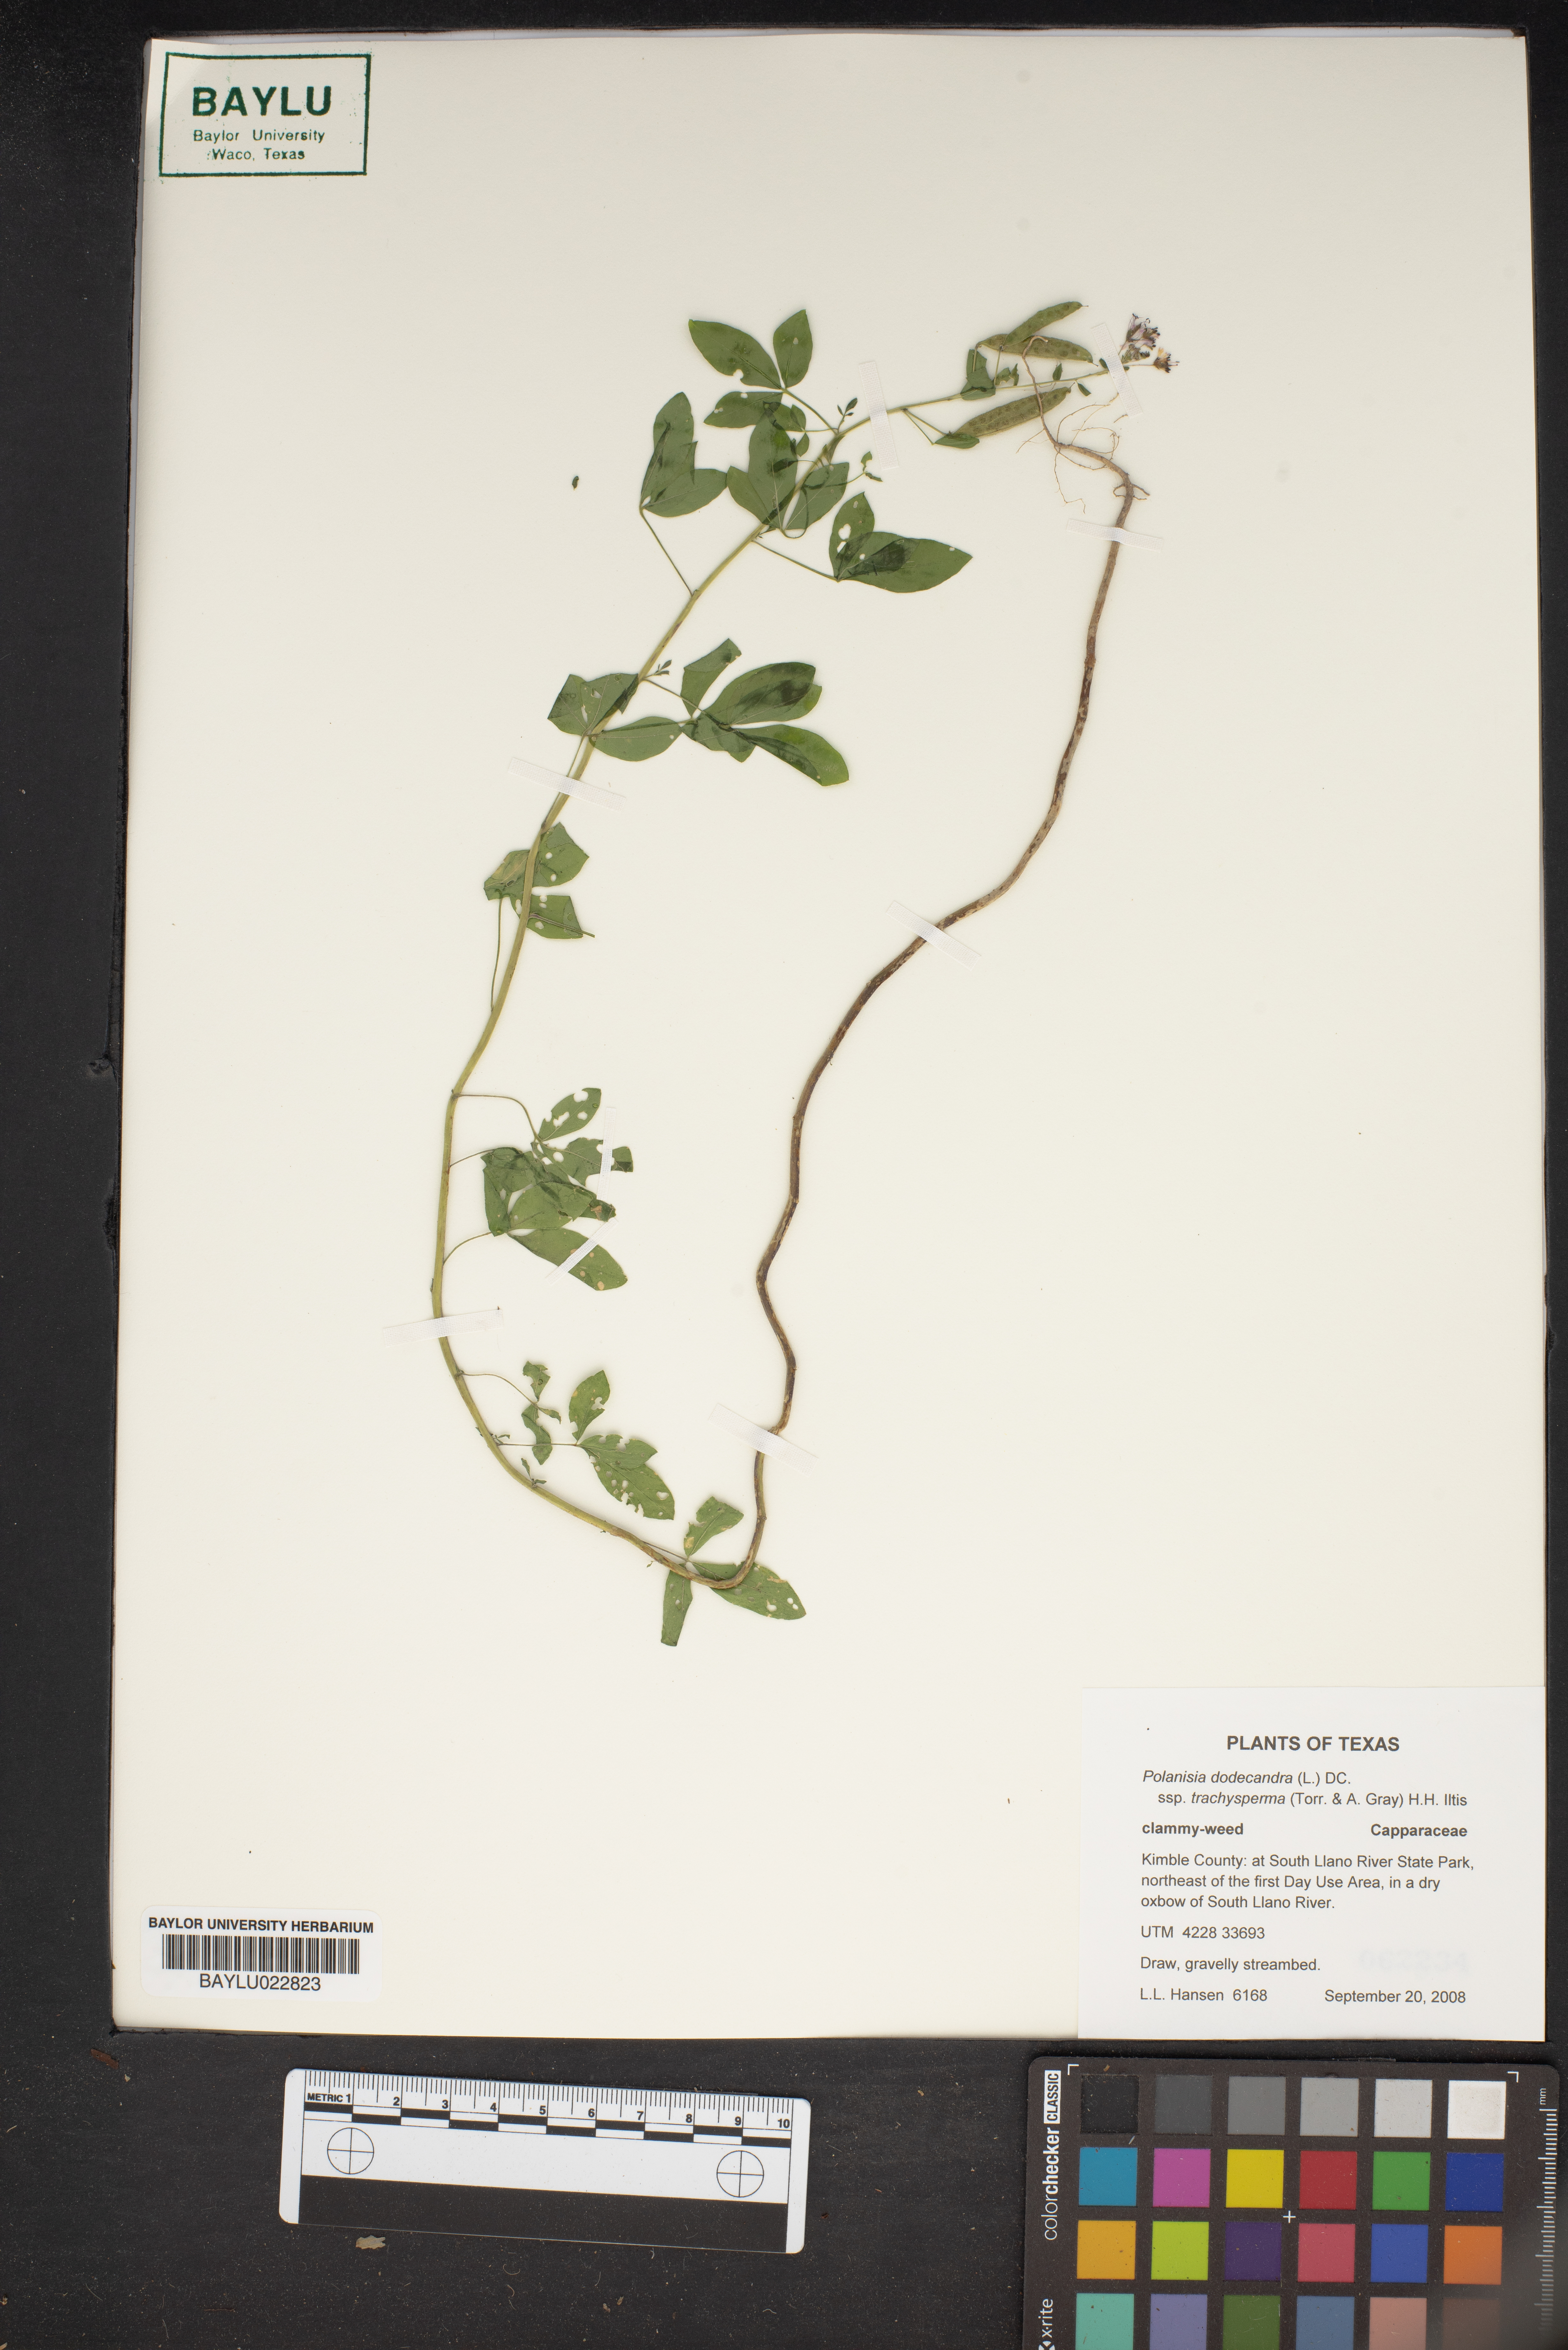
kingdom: Plantae
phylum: Tracheophyta
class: Magnoliopsida
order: Brassicales
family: Cleomaceae
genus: Polanisia
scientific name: Polanisia trachysperma
